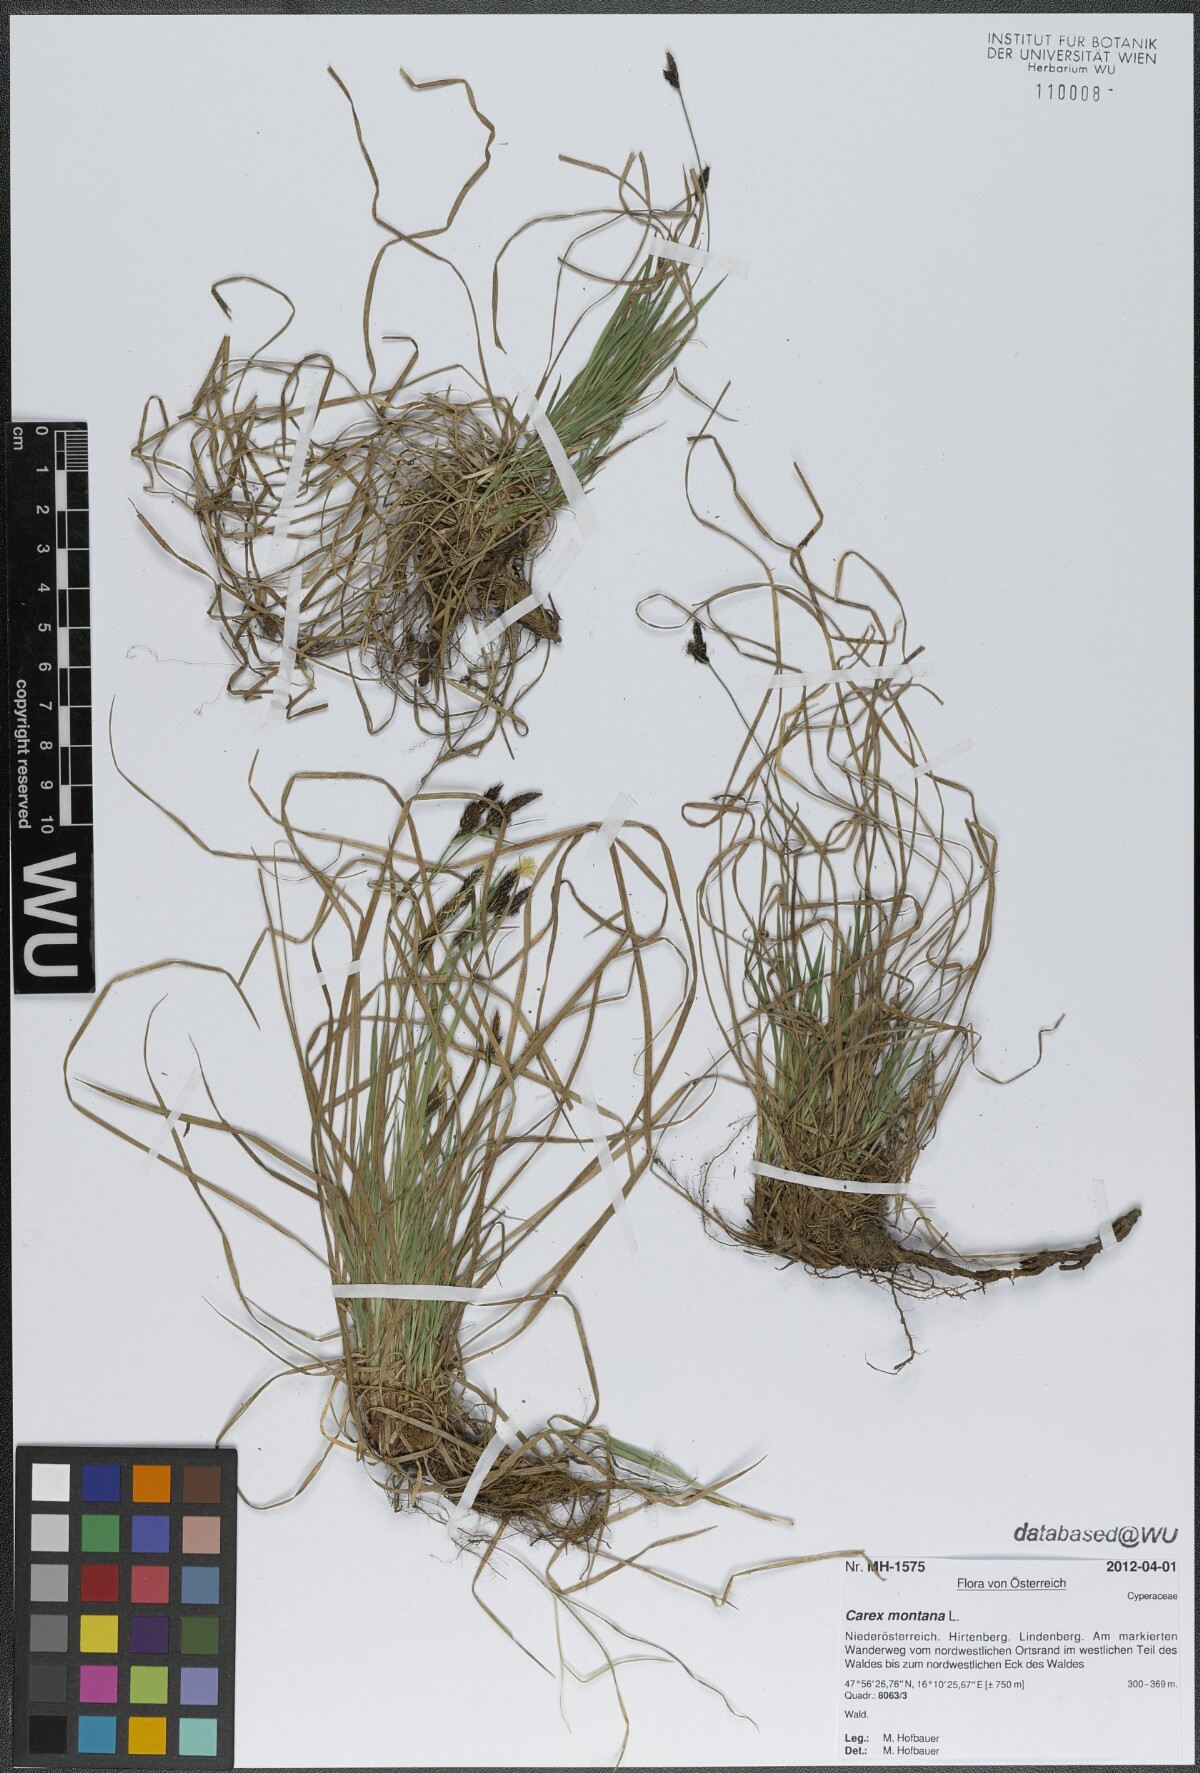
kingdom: Plantae
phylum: Tracheophyta
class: Liliopsida
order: Poales
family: Cyperaceae
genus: Carex
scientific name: Carex montana
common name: Soft-leaved sedge
